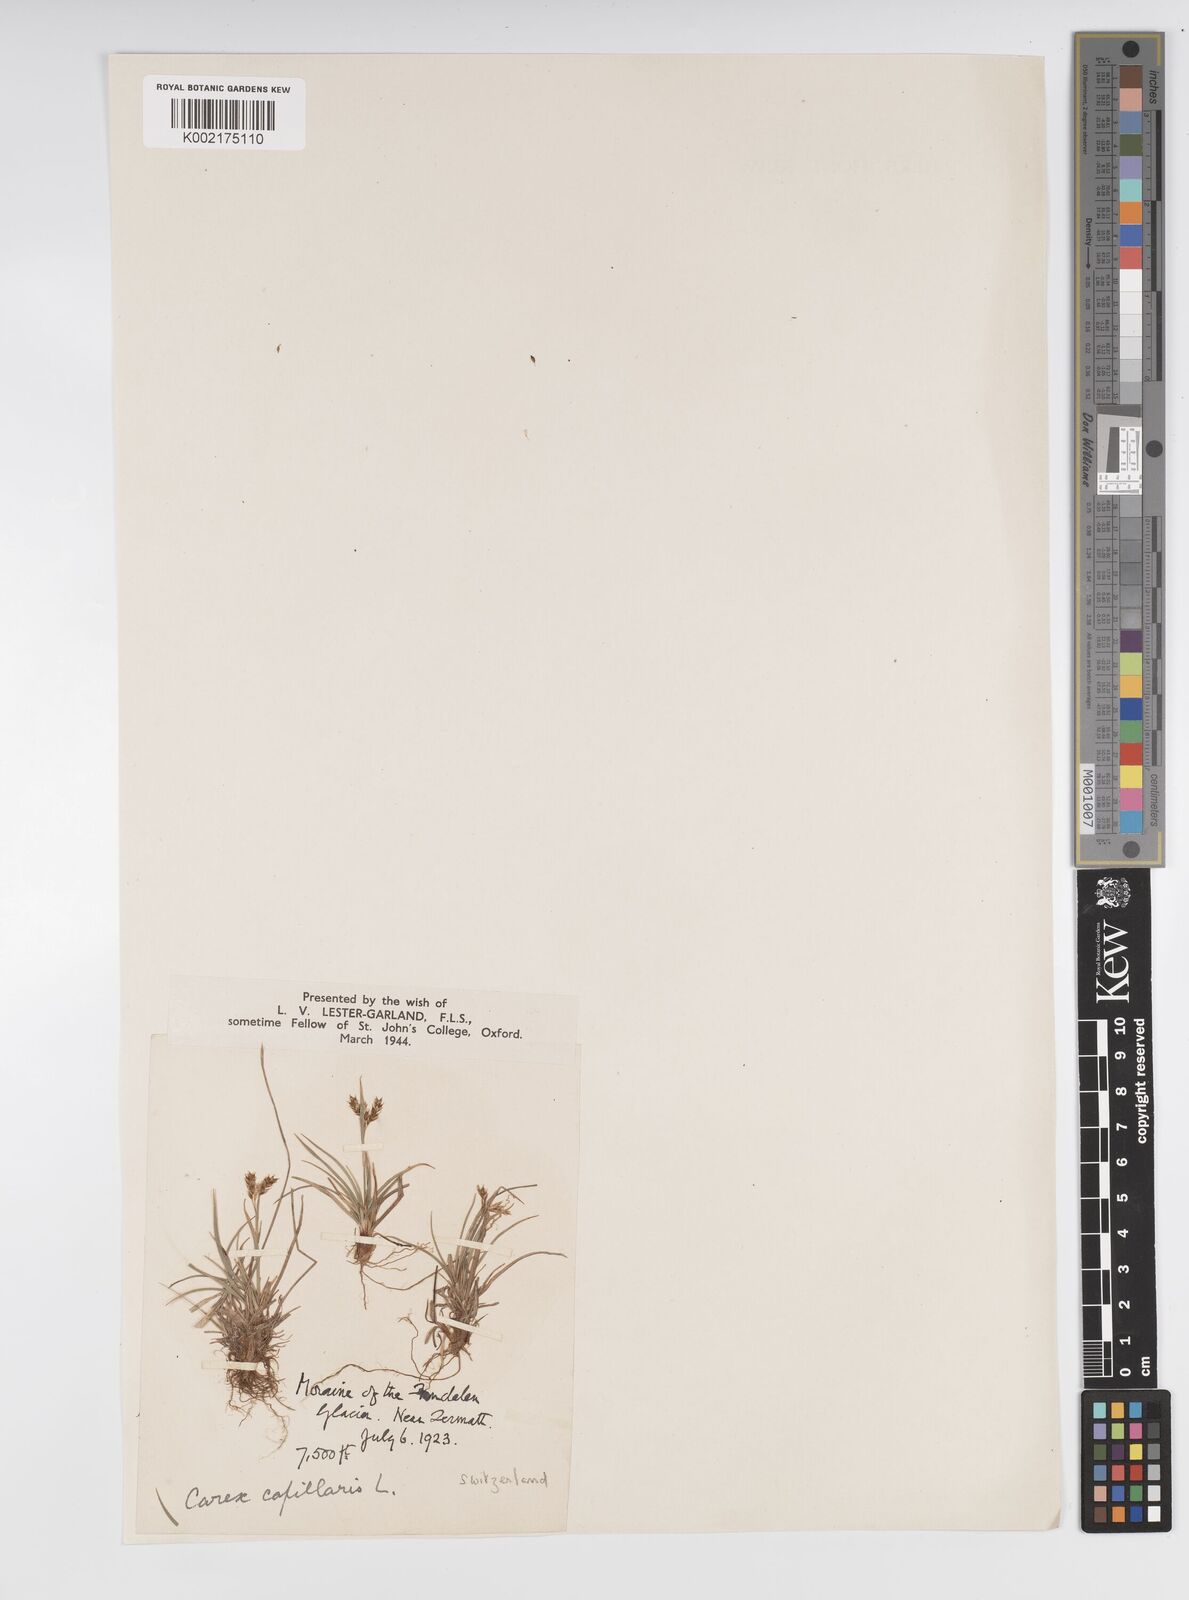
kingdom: Plantae
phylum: Tracheophyta
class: Liliopsida
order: Poales
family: Cyperaceae
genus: Carex
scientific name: Carex capillaris
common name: Hair sedge
